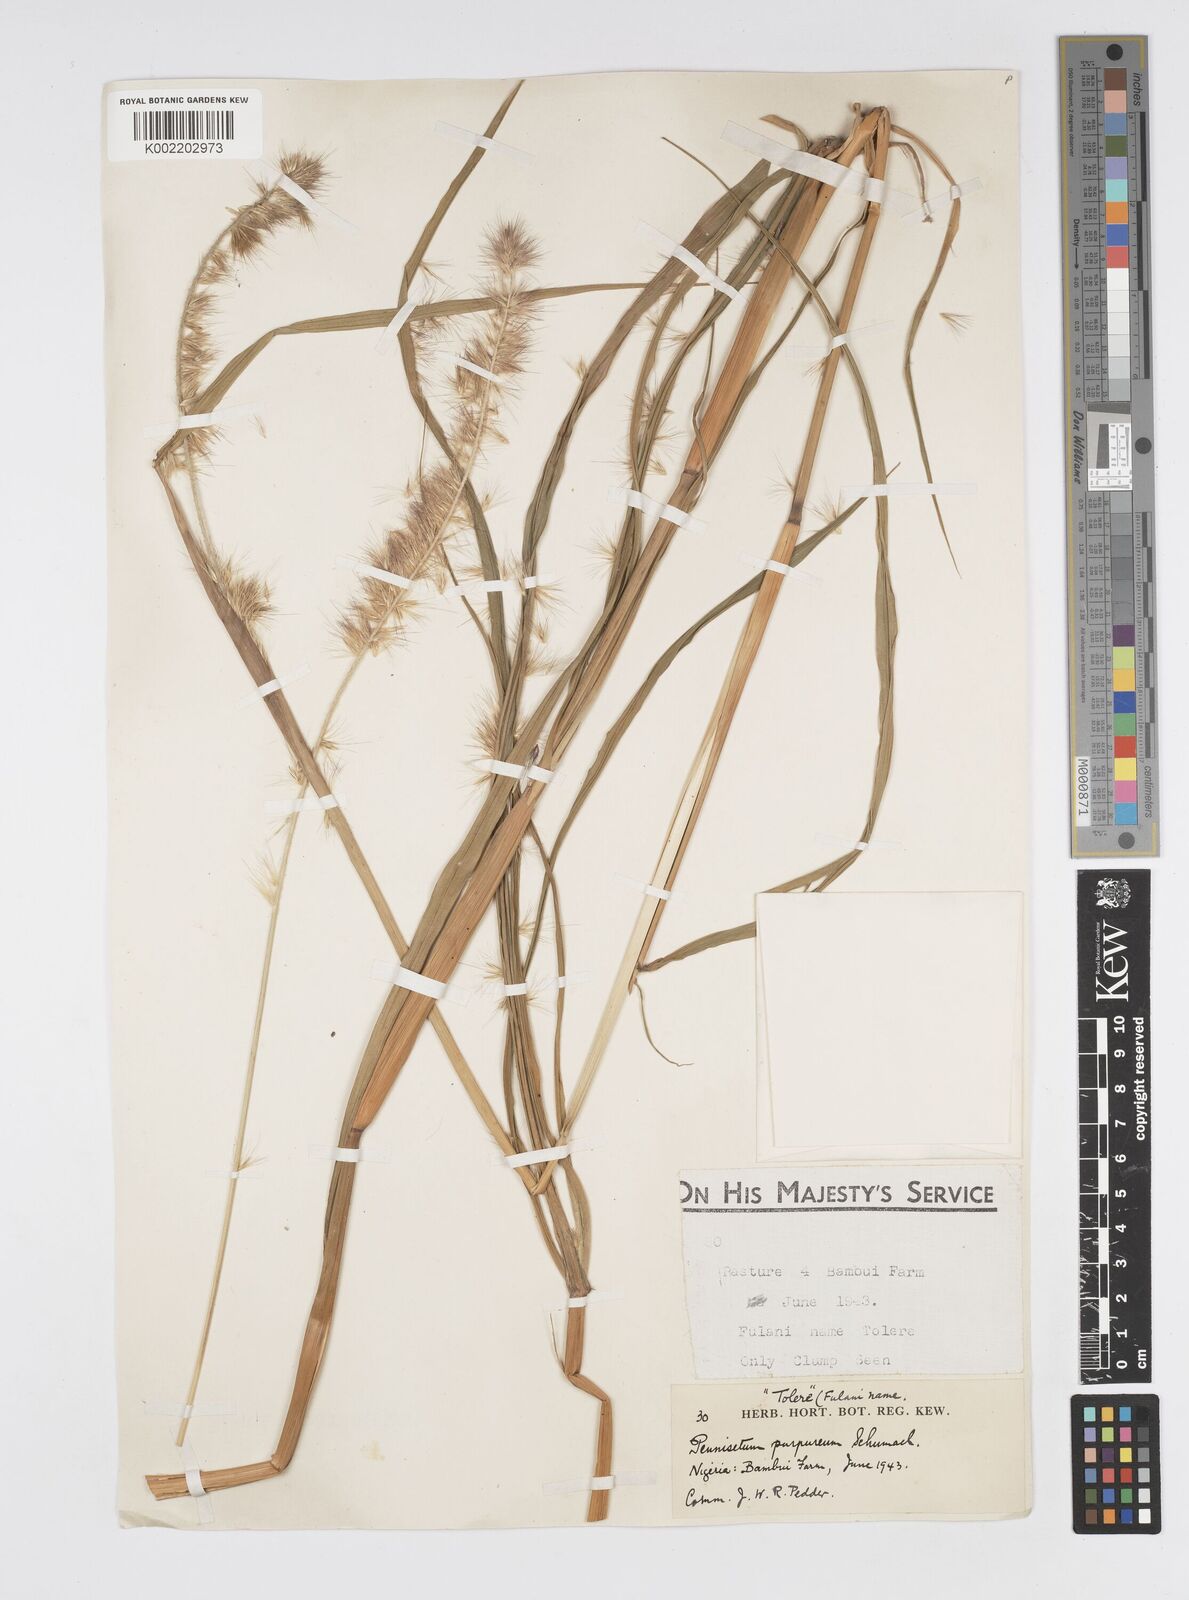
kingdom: Plantae
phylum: Tracheophyta
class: Liliopsida
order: Poales
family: Poaceae
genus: Cenchrus
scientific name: Cenchrus purpureus
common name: Elephant grass
